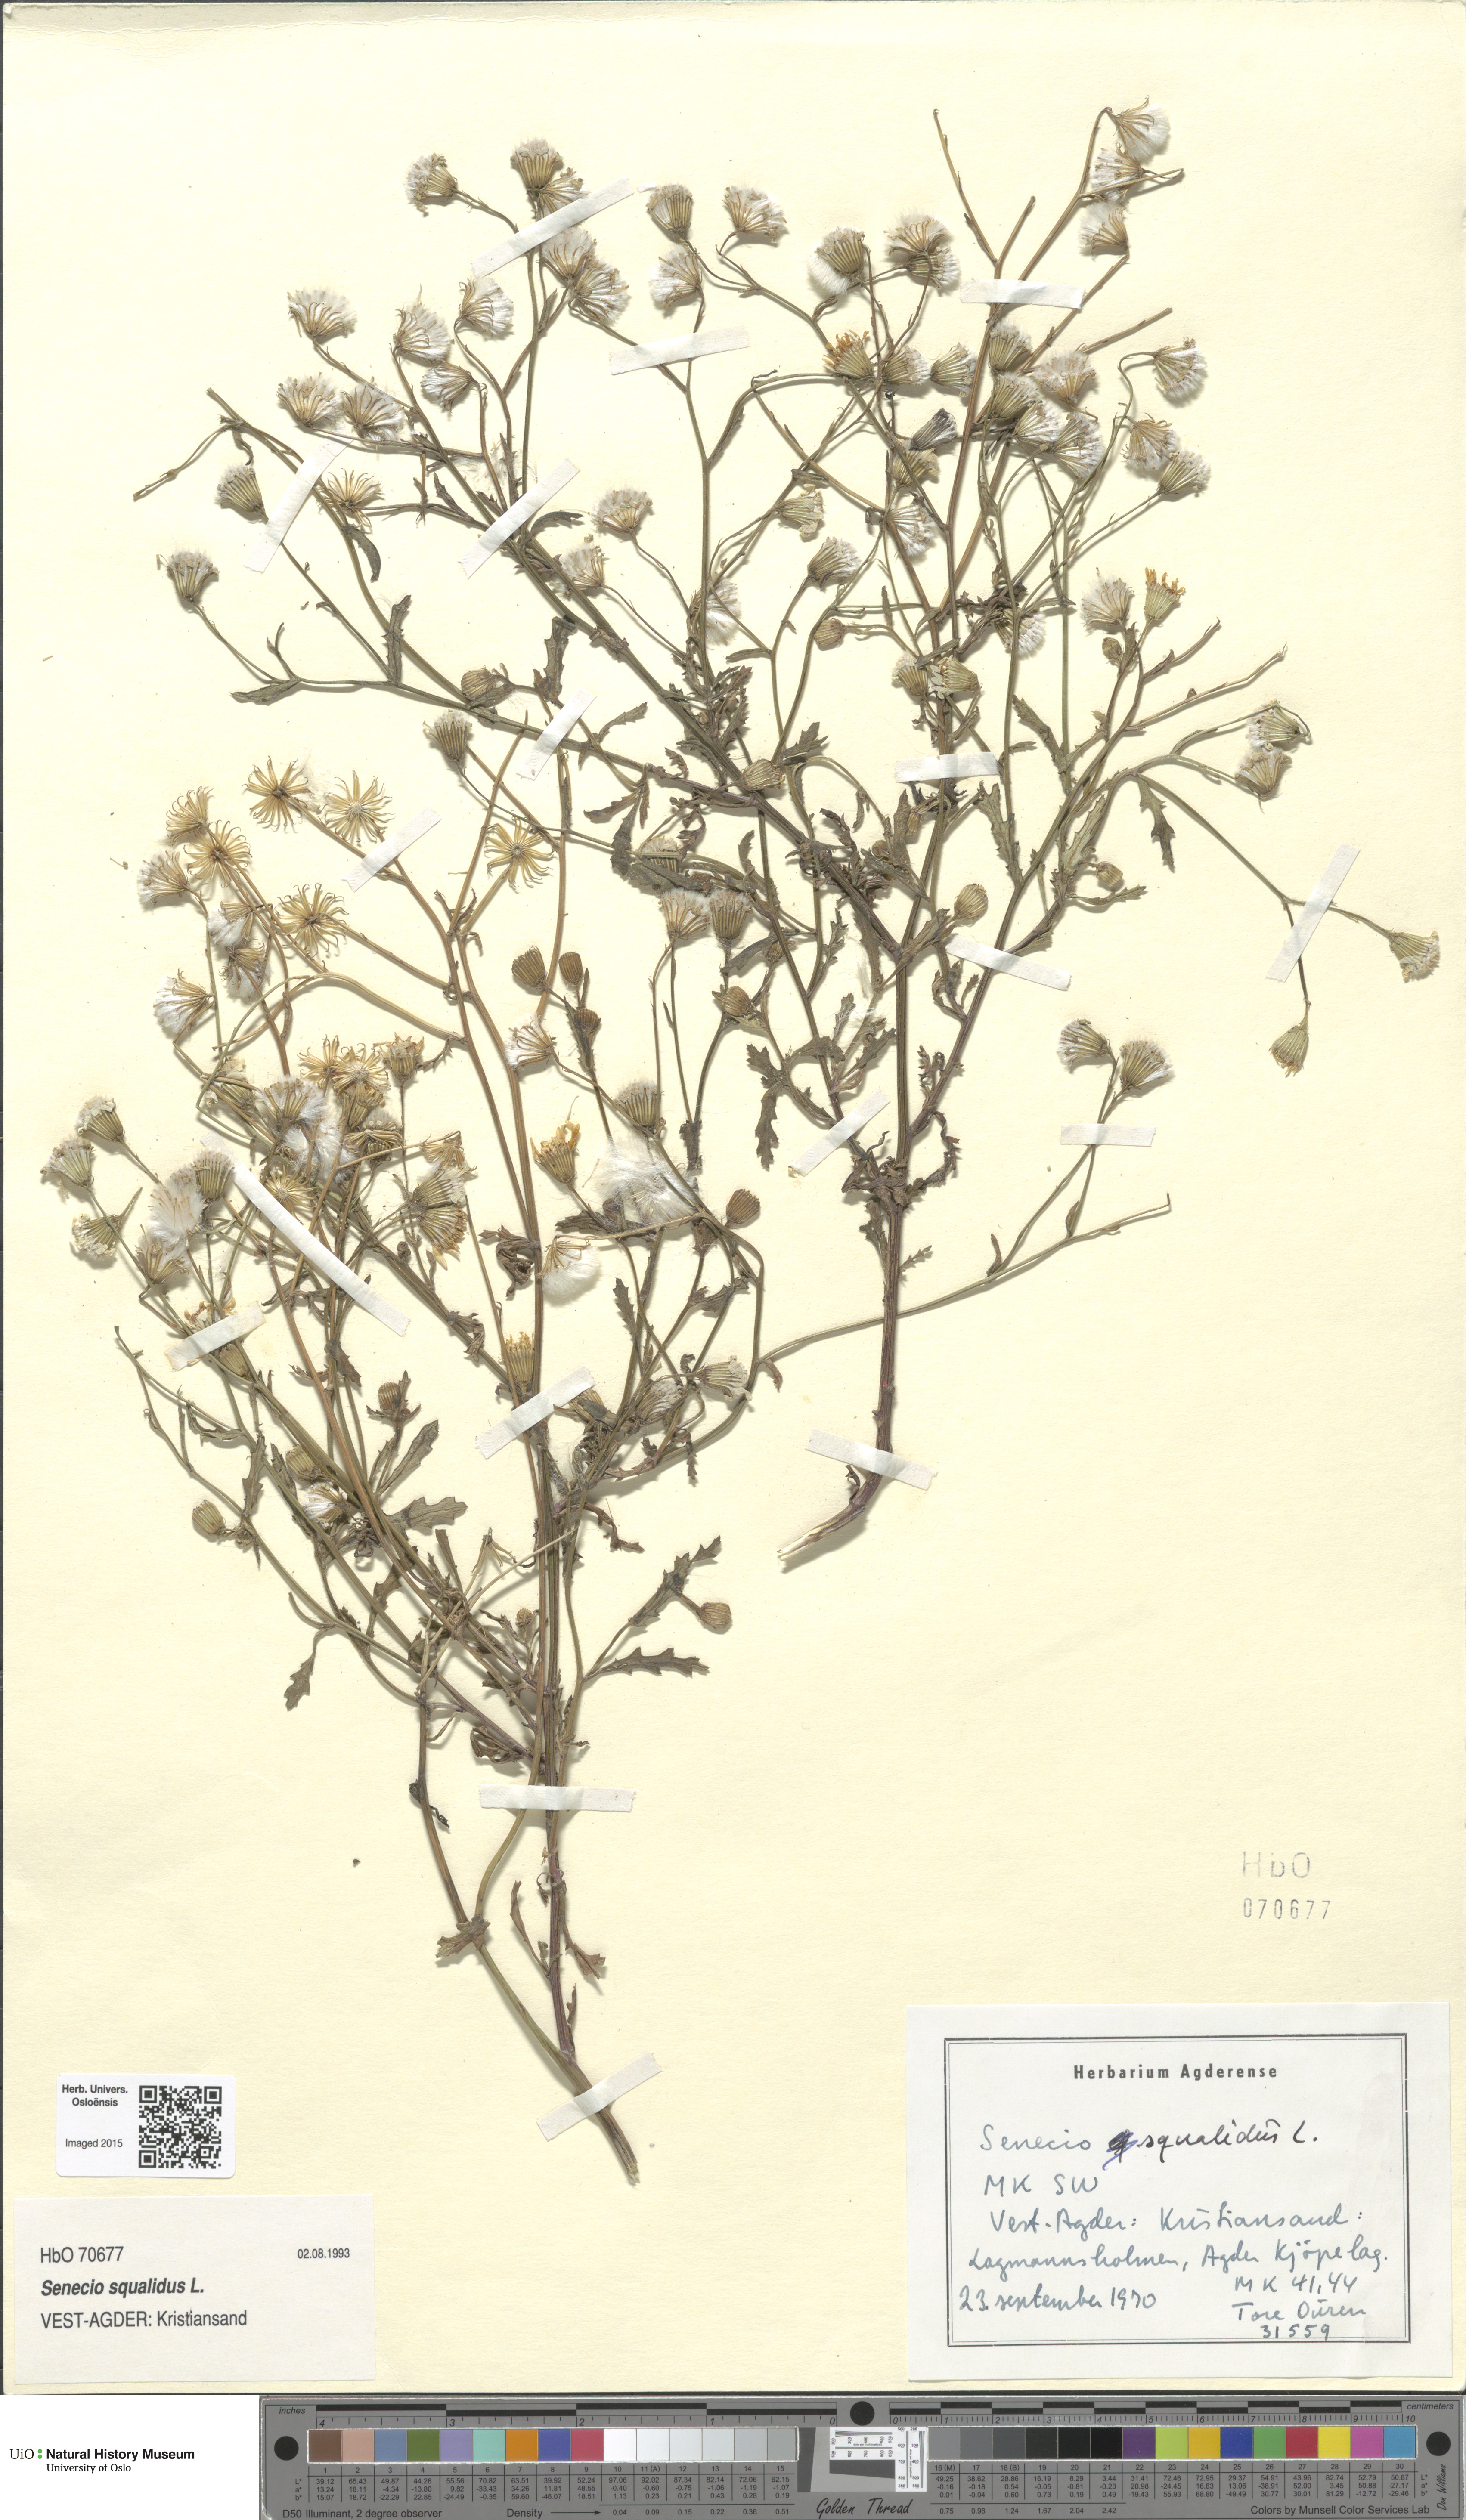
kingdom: Plantae
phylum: Tracheophyta
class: Magnoliopsida
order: Asterales
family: Asteraceae
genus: Senecio
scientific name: Senecio squalidus
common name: Oxford ragwort
